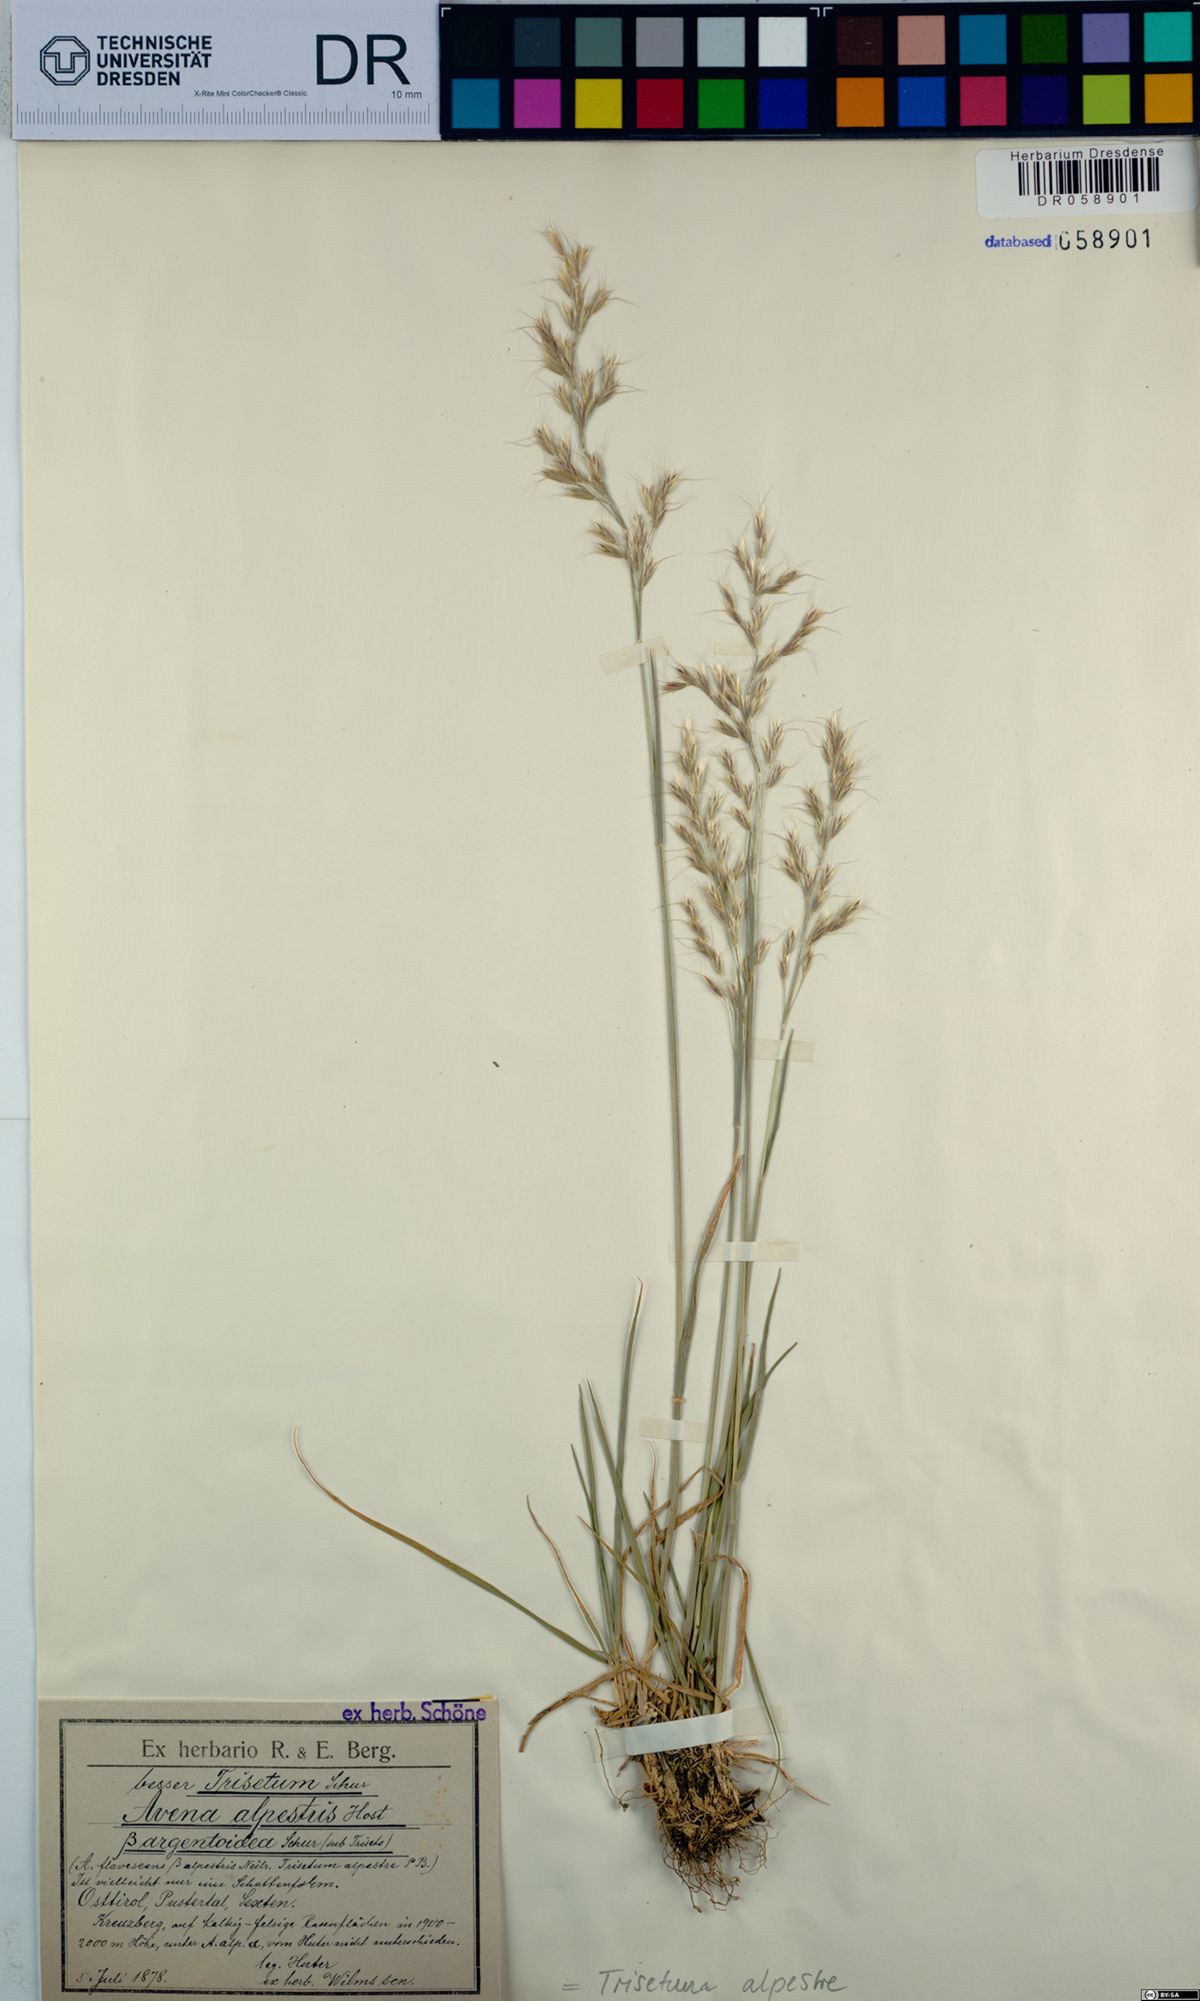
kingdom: Plantae
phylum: Tracheophyta
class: Liliopsida
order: Poales
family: Poaceae
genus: Trisetum
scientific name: Trisetum alpestre
